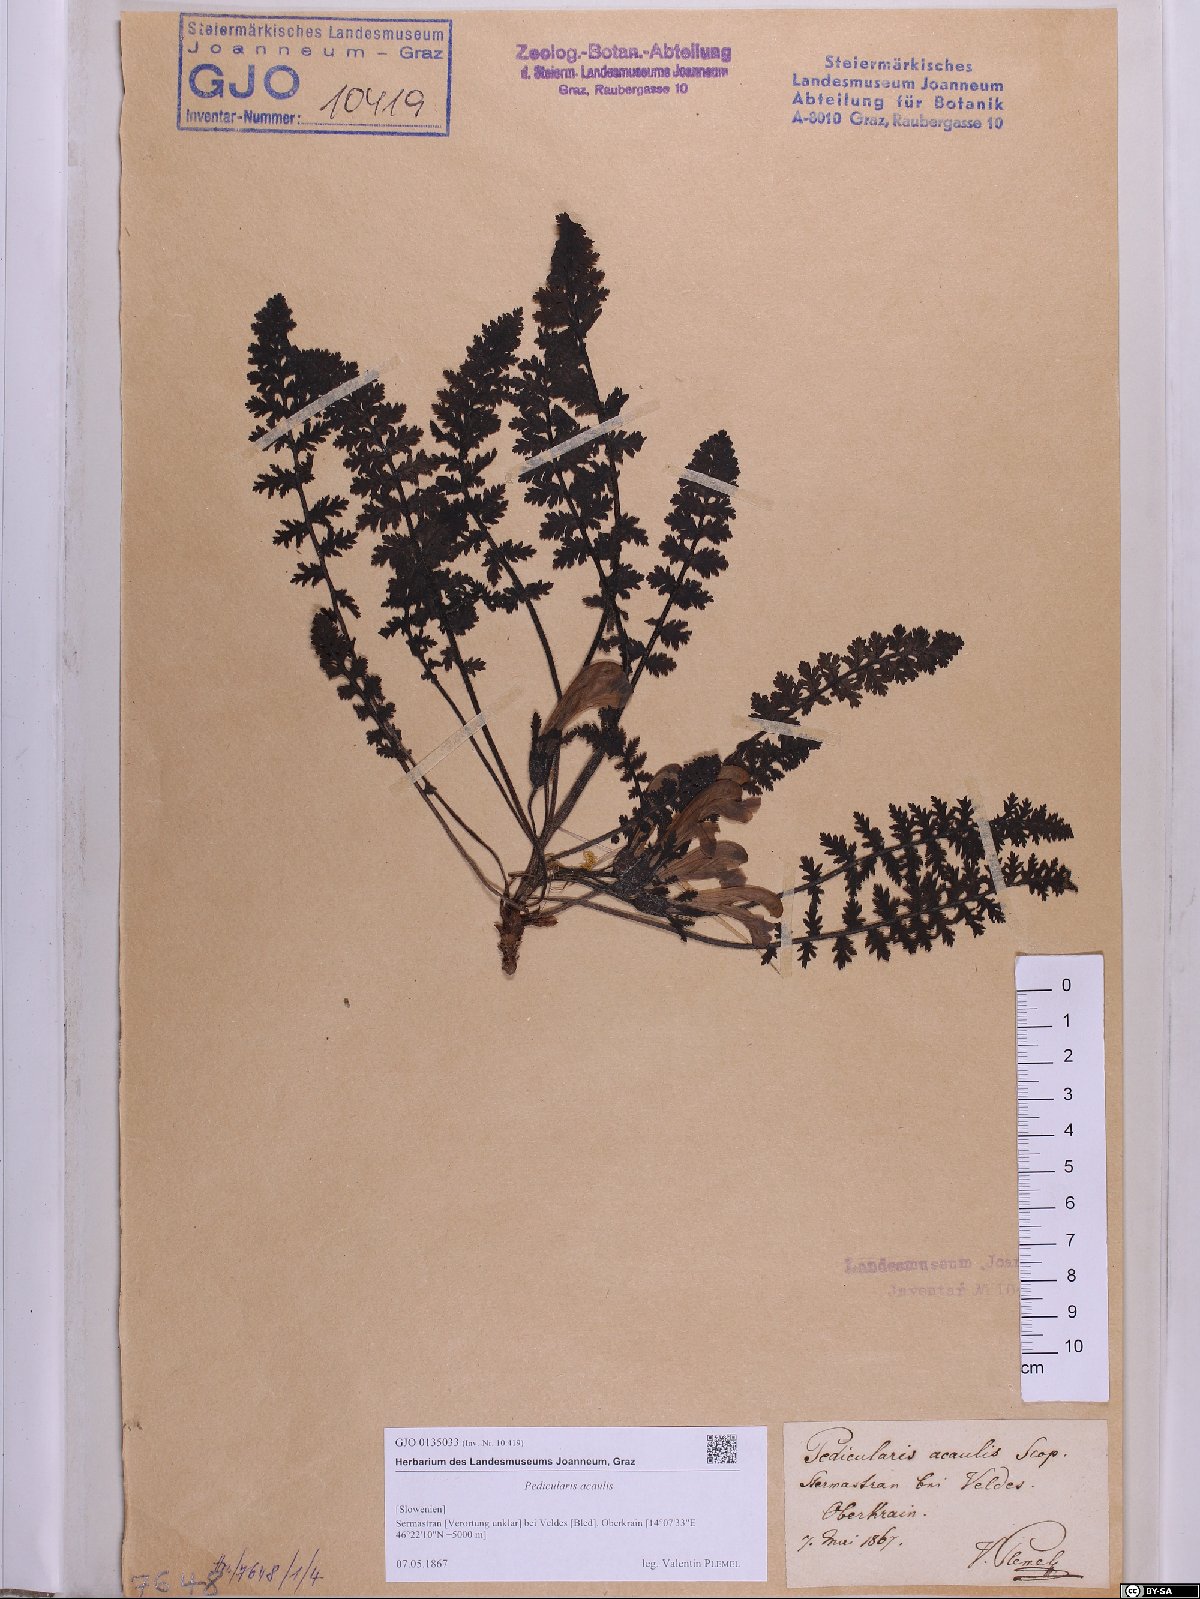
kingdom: Plantae
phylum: Tracheophyta
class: Magnoliopsida
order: Lamiales
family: Orobanchaceae
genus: Pedicularis
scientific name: Pedicularis acaulis
